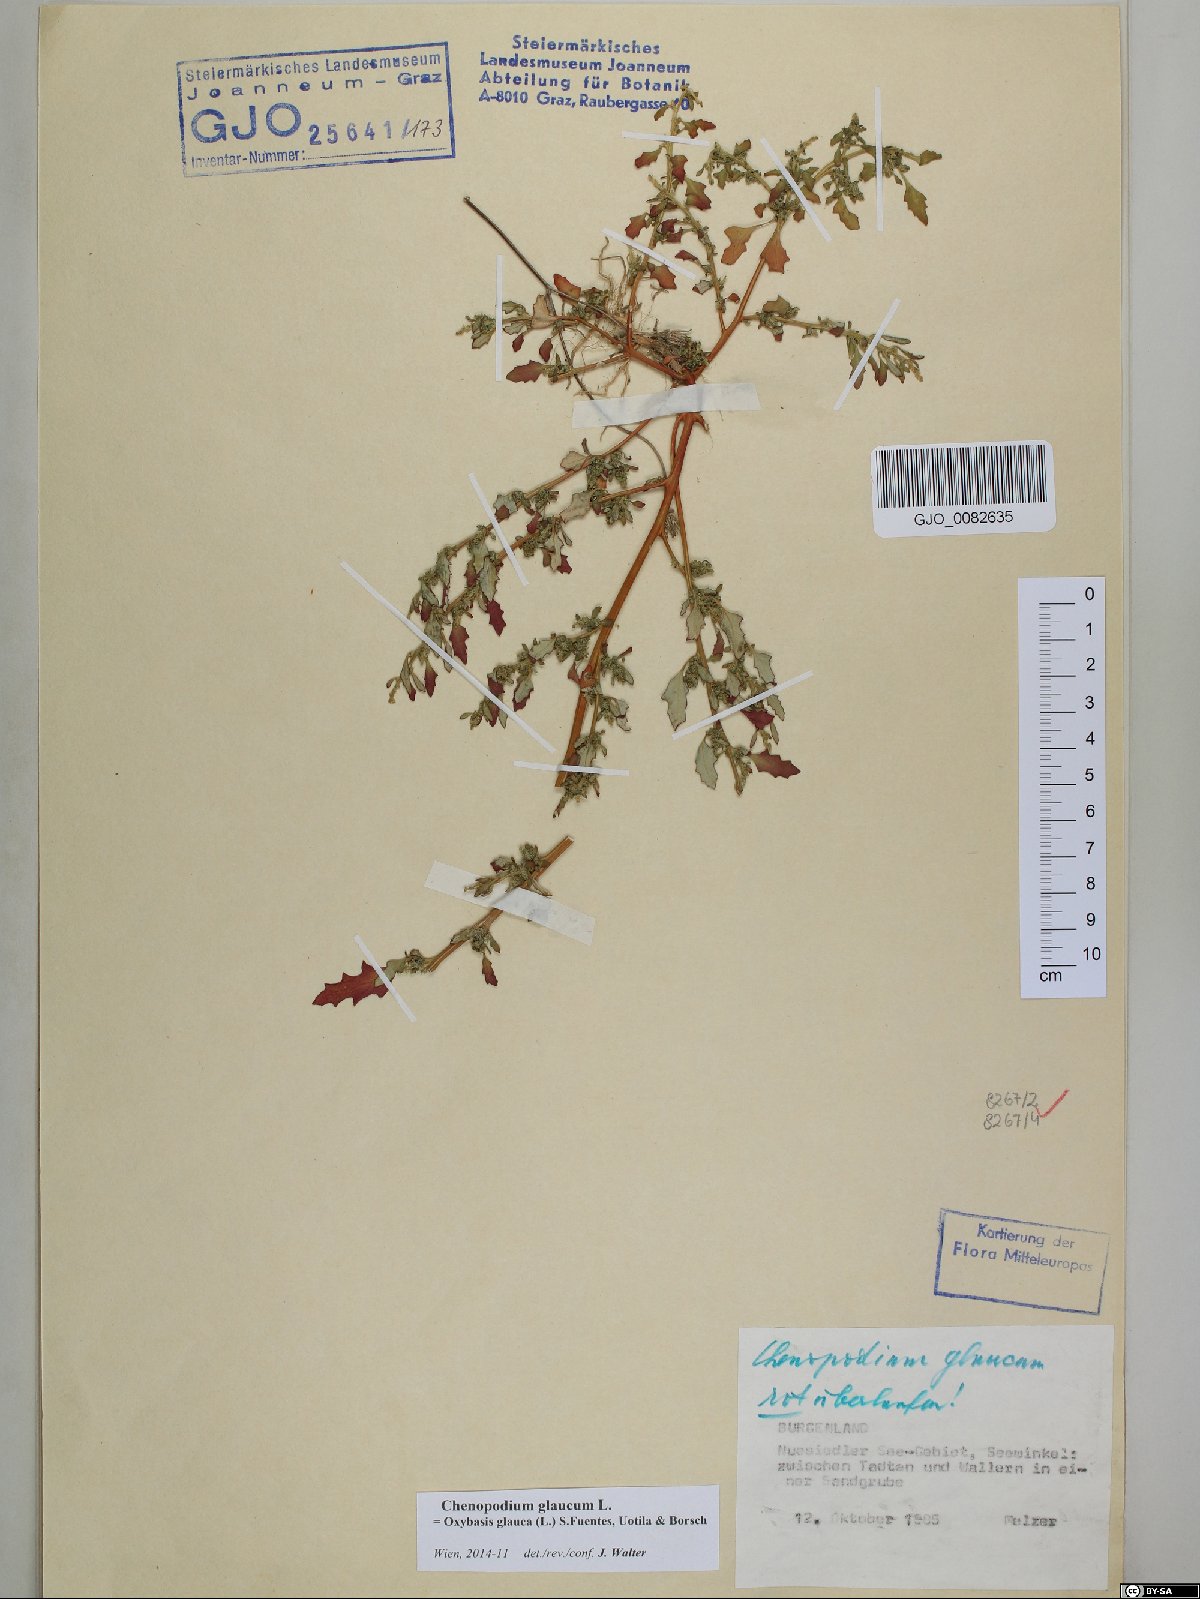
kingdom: Plantae
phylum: Tracheophyta
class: Magnoliopsida
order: Caryophyllales
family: Amaranthaceae
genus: Oxybasis
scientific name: Oxybasis glauca
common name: Glaucous goosefoot
